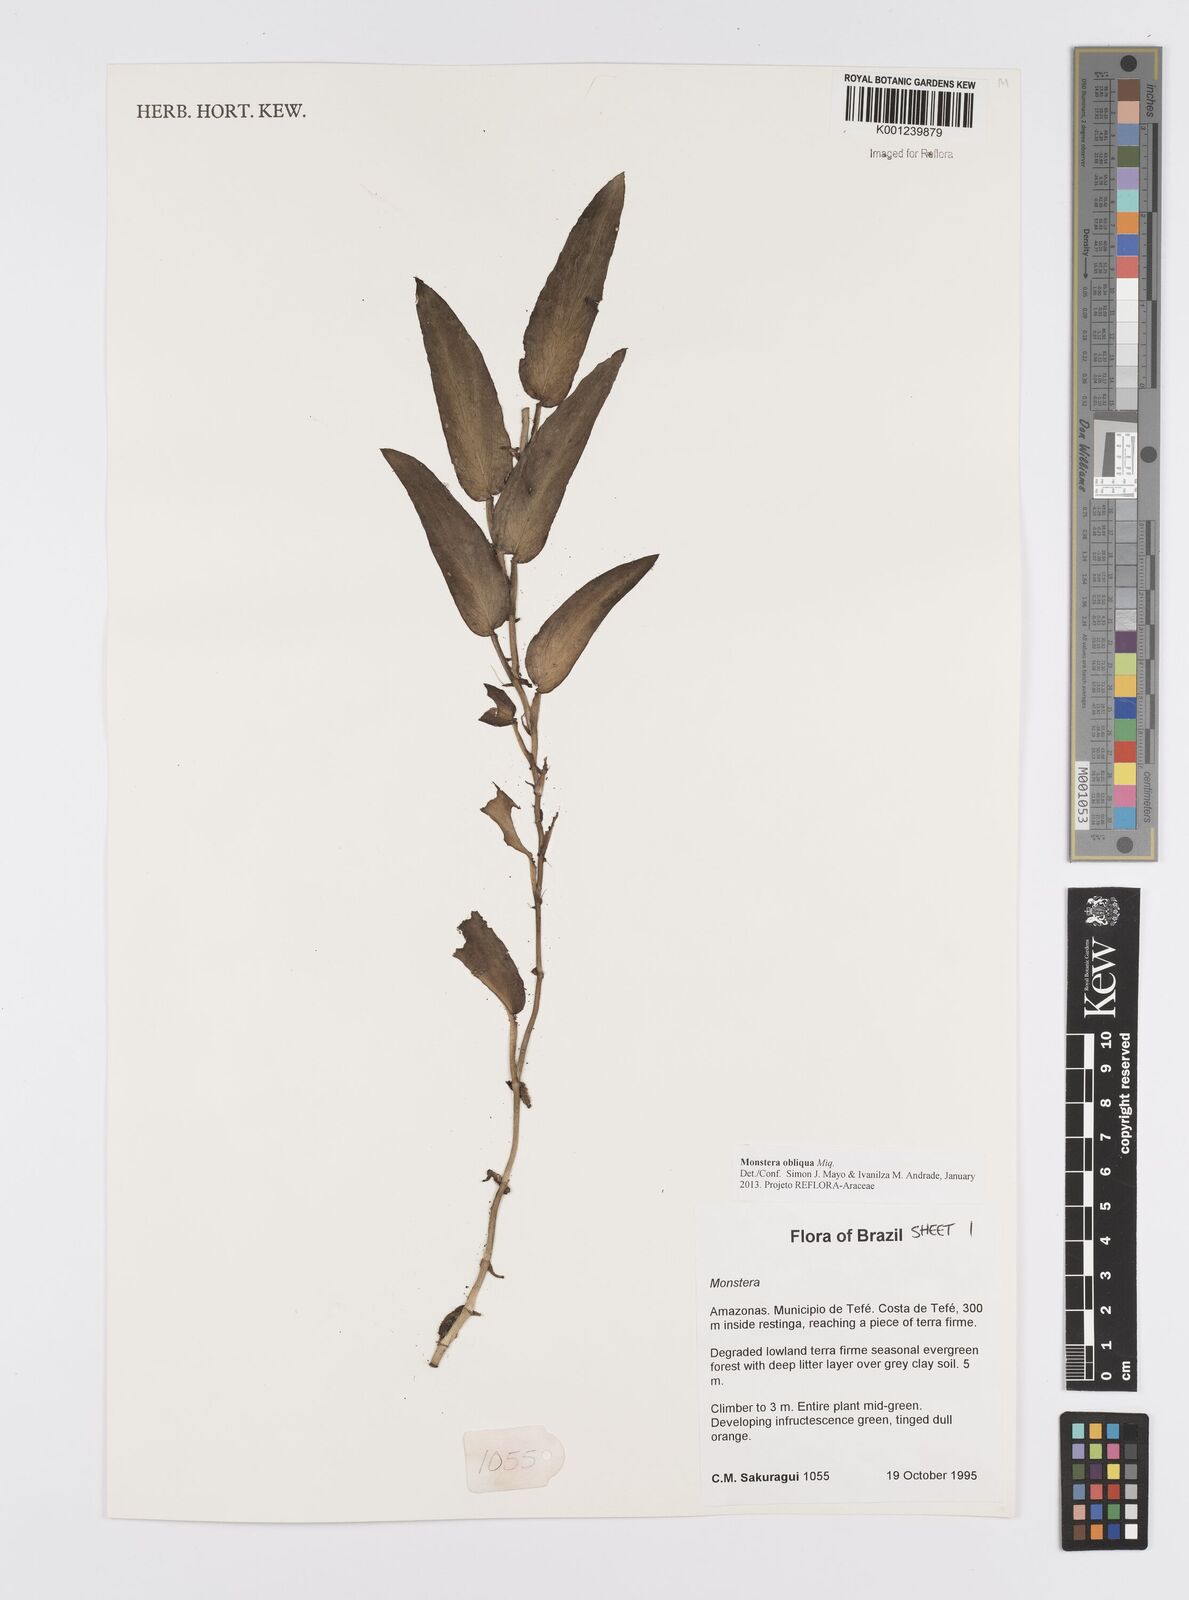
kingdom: Plantae
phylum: Tracheophyta
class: Liliopsida
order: Alismatales
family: Araceae
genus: Monstera
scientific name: Monstera obliqua
